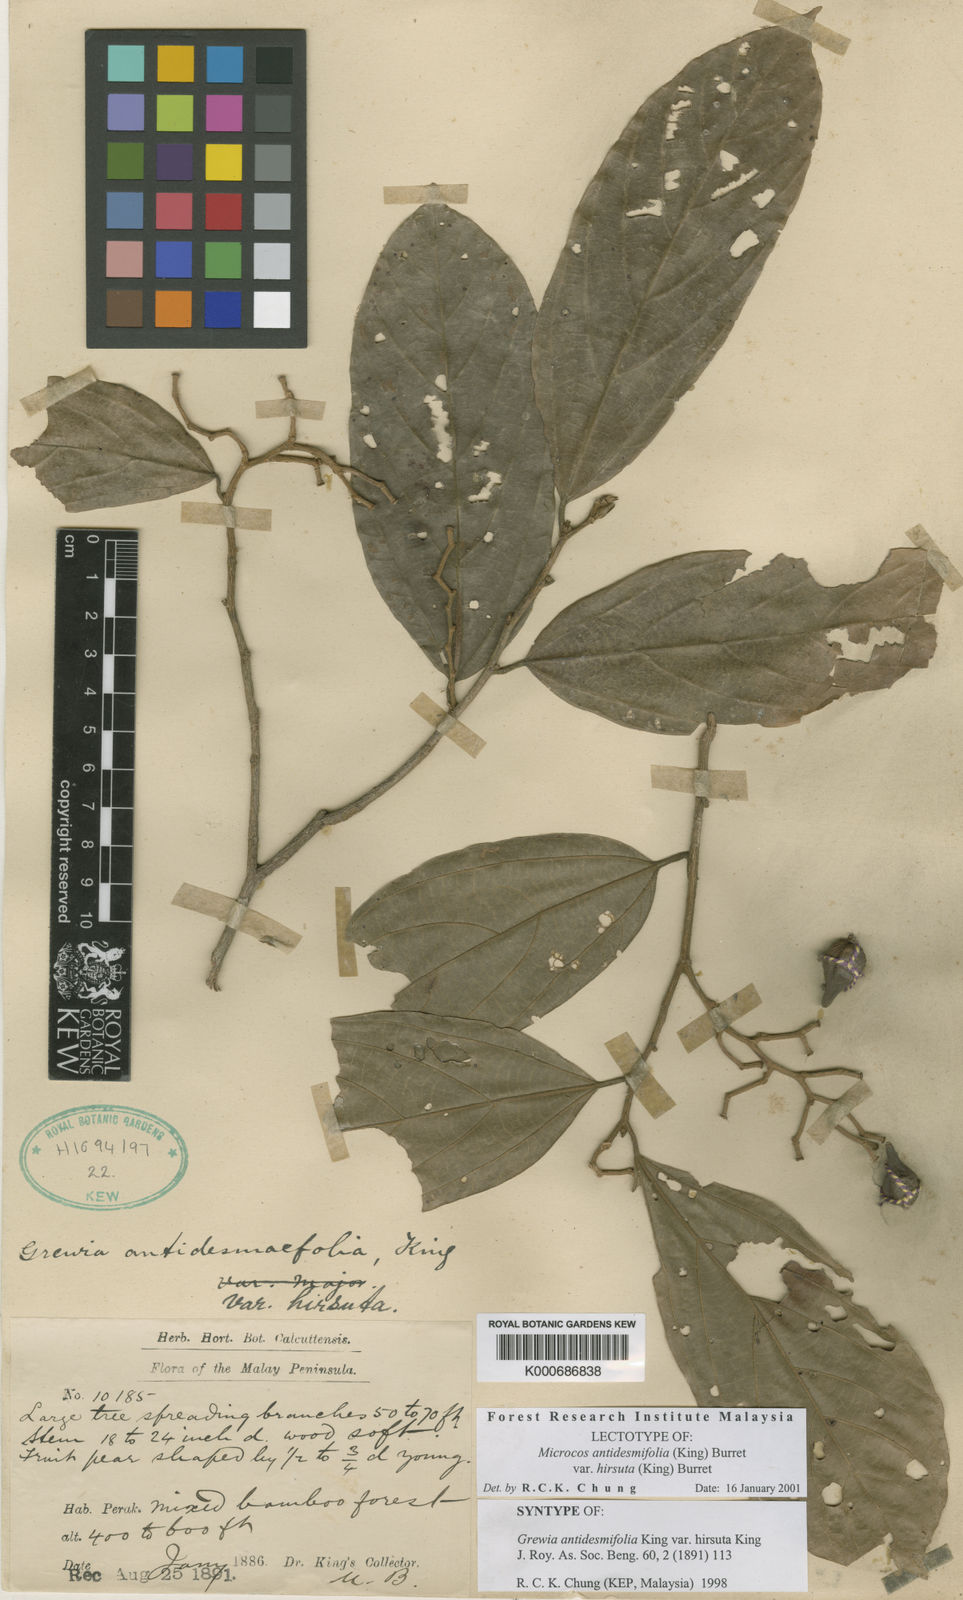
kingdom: Plantae
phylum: Tracheophyta
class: Magnoliopsida
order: Malvales
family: Malvaceae
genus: Microcos
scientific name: Microcos antidesmifolia
